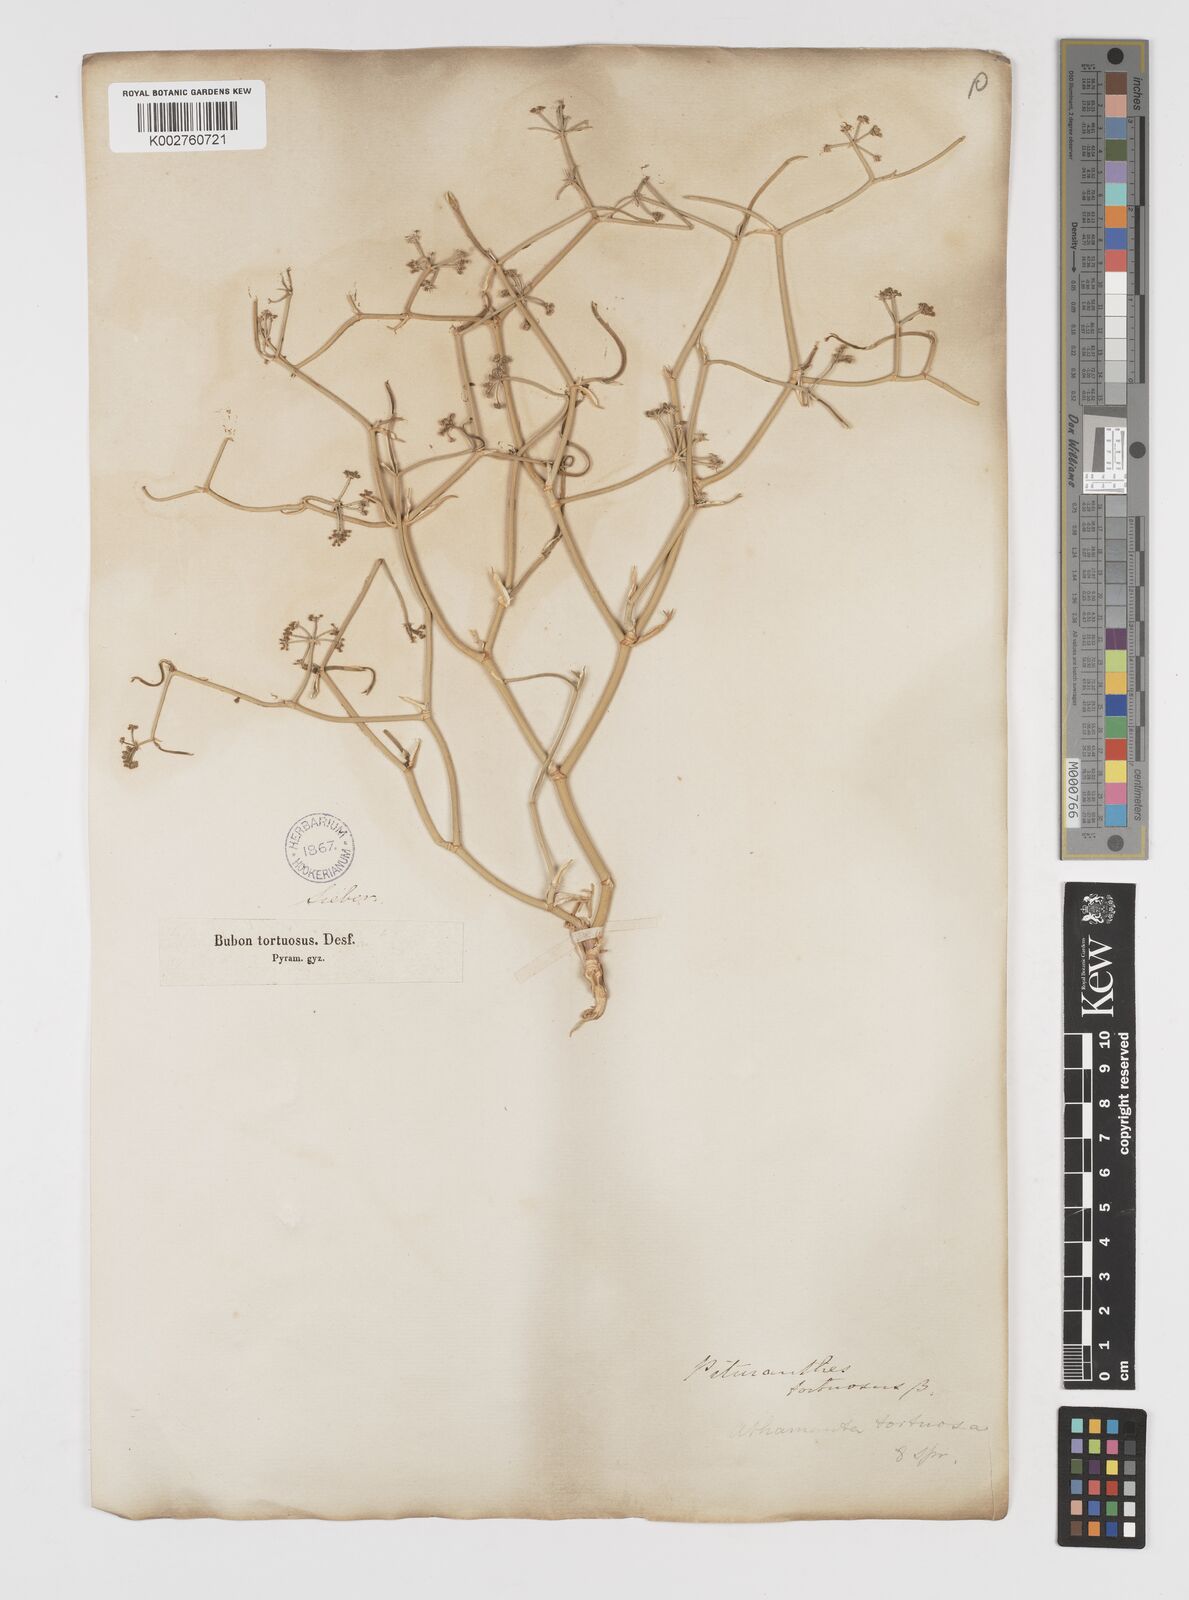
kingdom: Plantae
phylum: Tracheophyta
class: Magnoliopsida
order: Apiales
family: Apiaceae
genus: Deverra
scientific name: Deverra tortuosa
